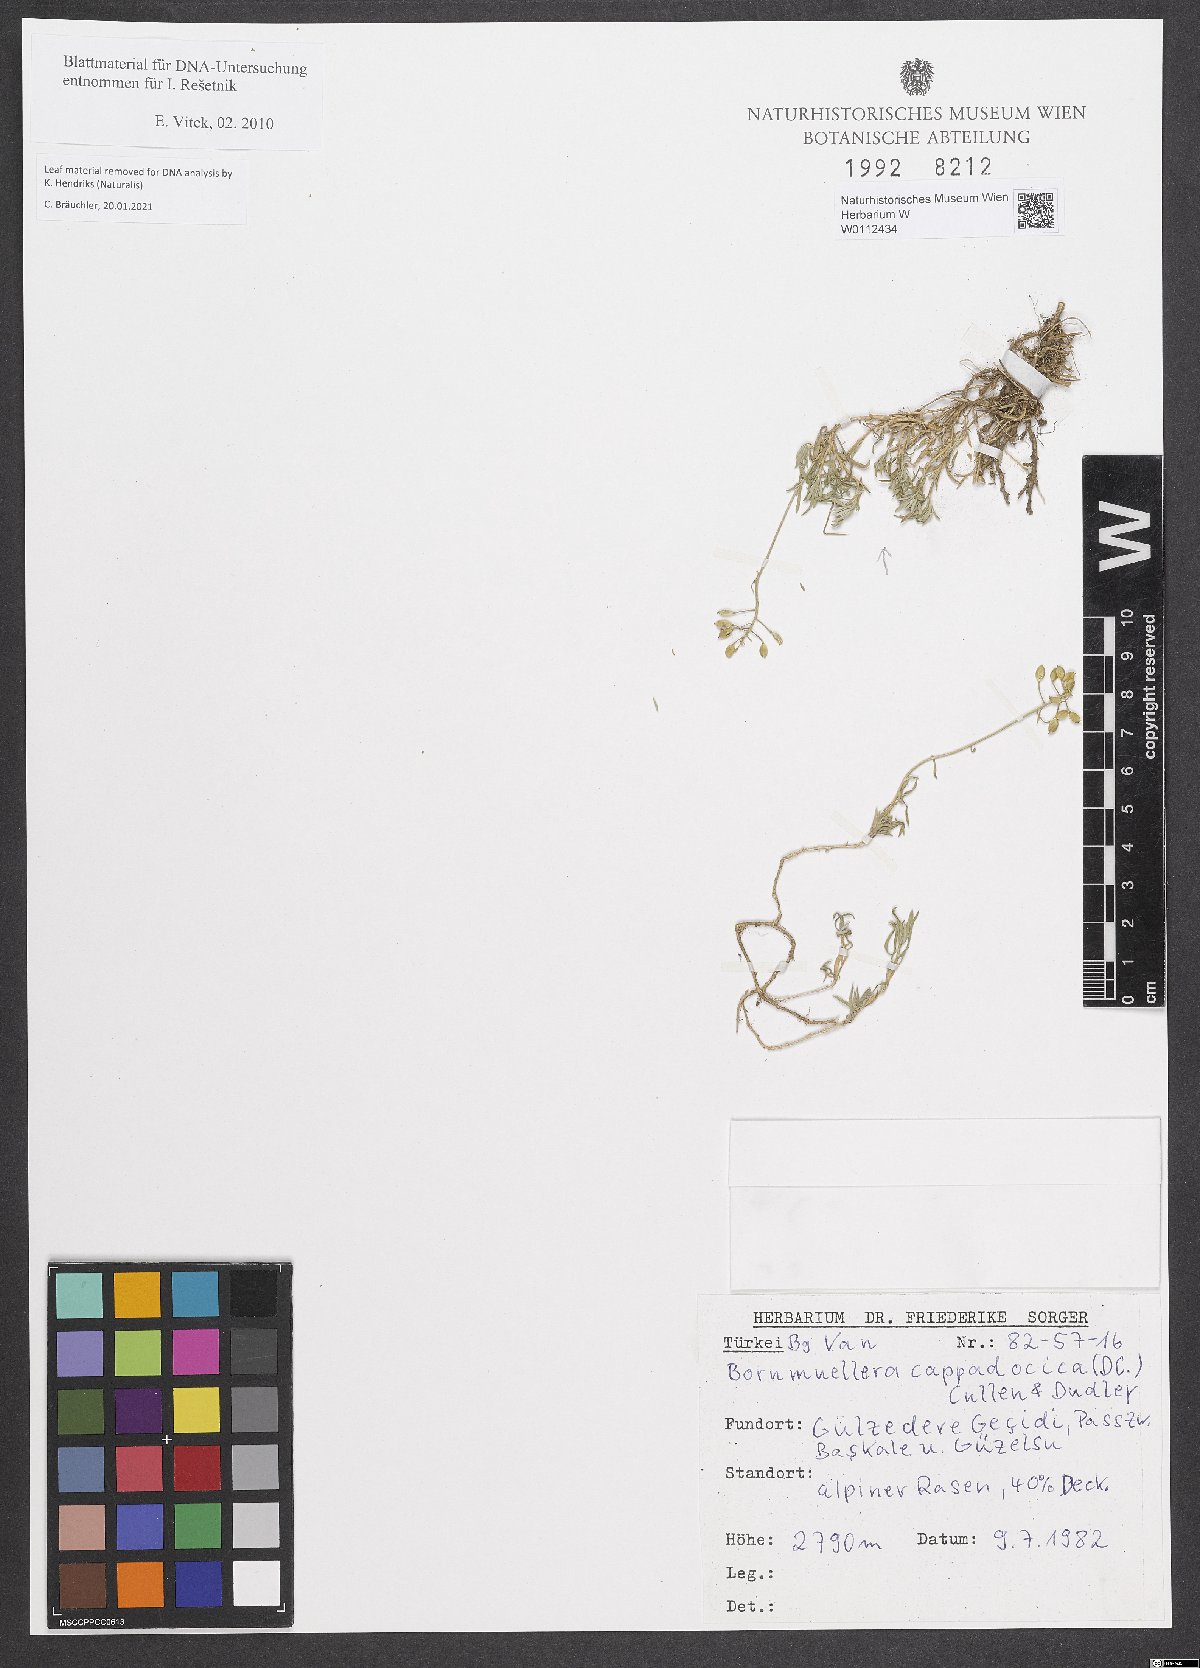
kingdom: Plantae
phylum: Tracheophyta
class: Magnoliopsida
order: Brassicales
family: Brassicaceae
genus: Bornmuellera
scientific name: Bornmuellera cappadocica
